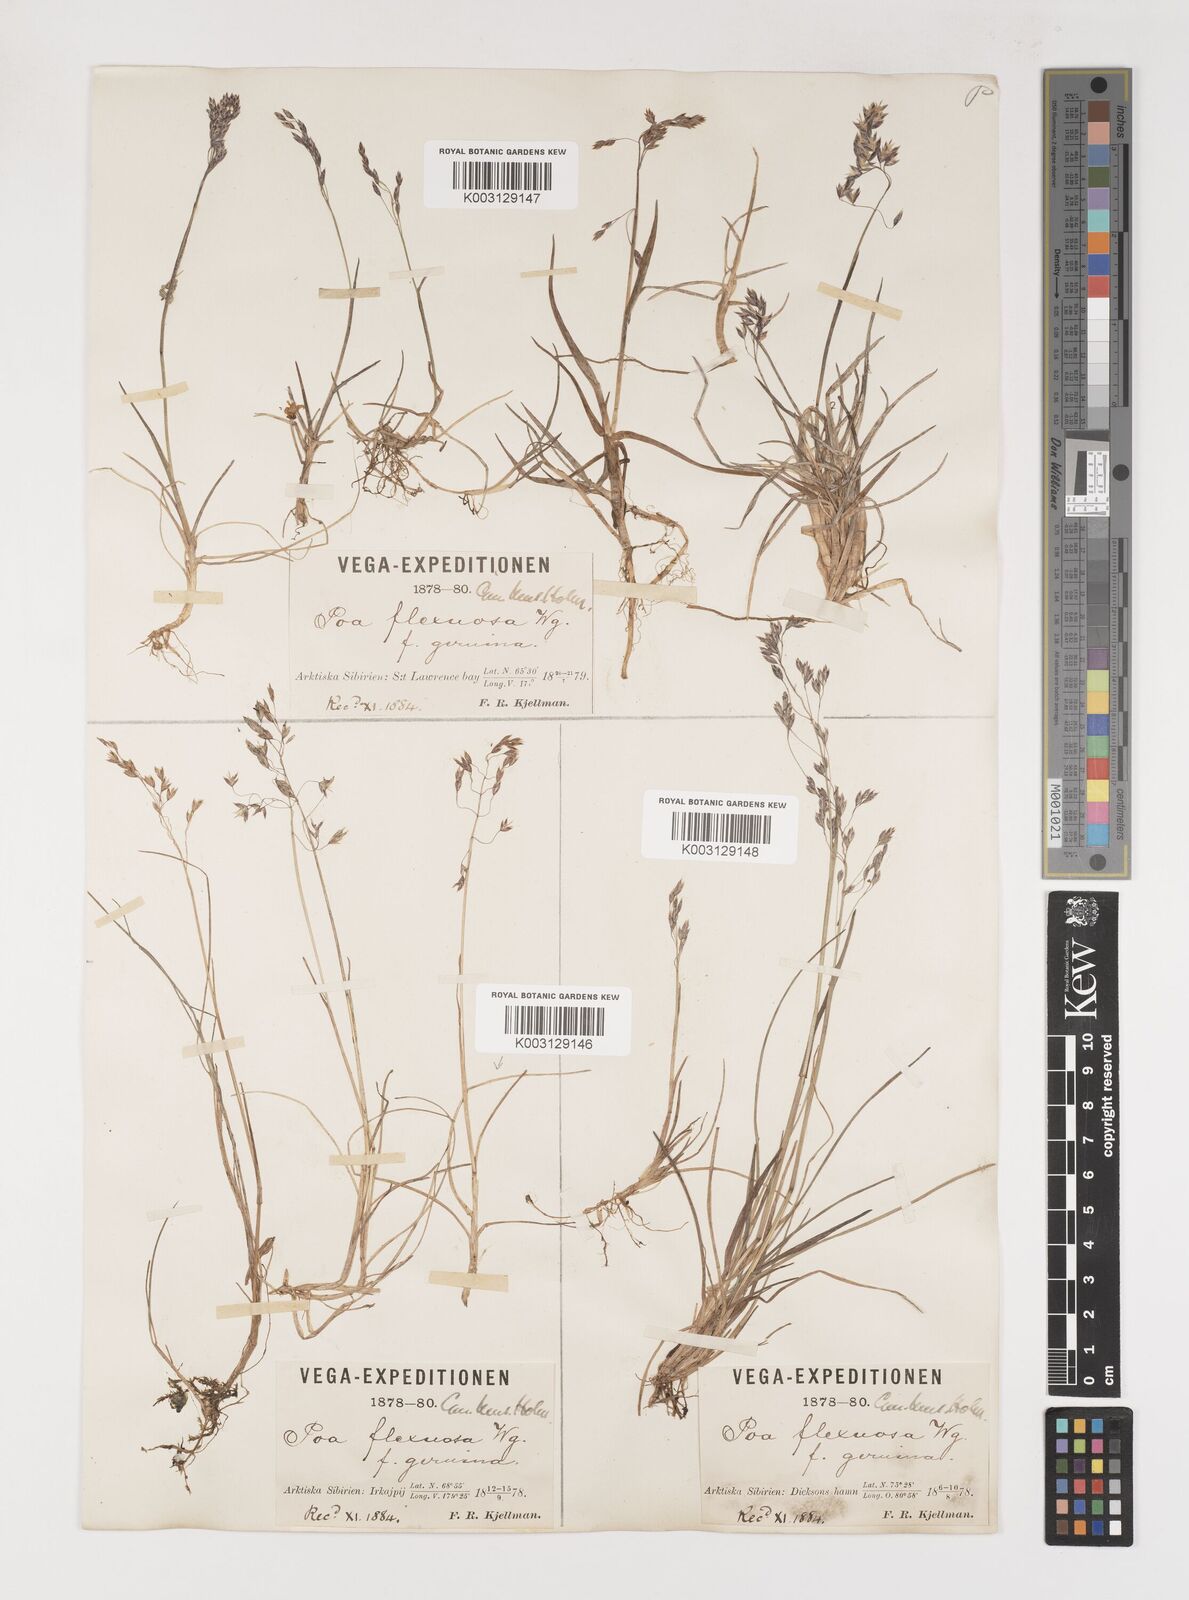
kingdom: Plantae
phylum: Tracheophyta
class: Liliopsida
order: Poales
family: Poaceae
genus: Poa
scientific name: Poa arctica
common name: Arctic bluegrass
